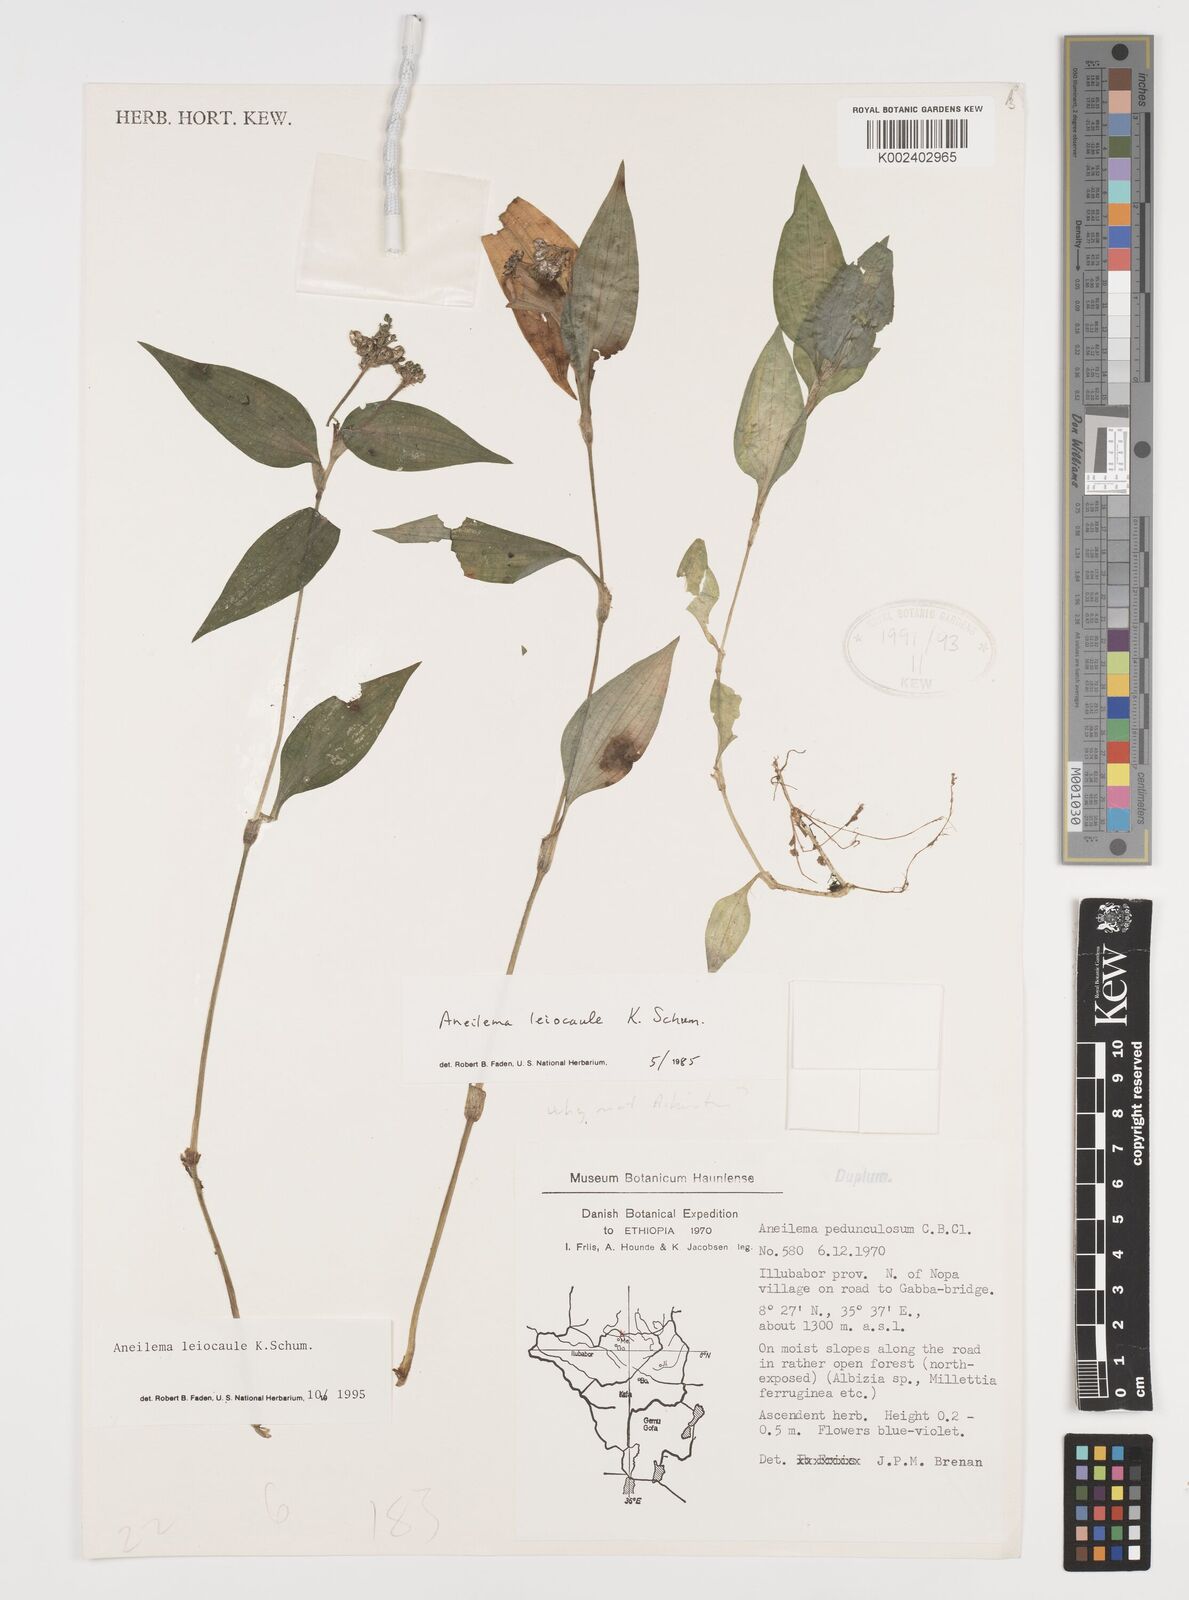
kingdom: Plantae
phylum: Tracheophyta
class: Liliopsida
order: Commelinales
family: Commelinaceae
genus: Aneilema
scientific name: Aneilema leiocaule
